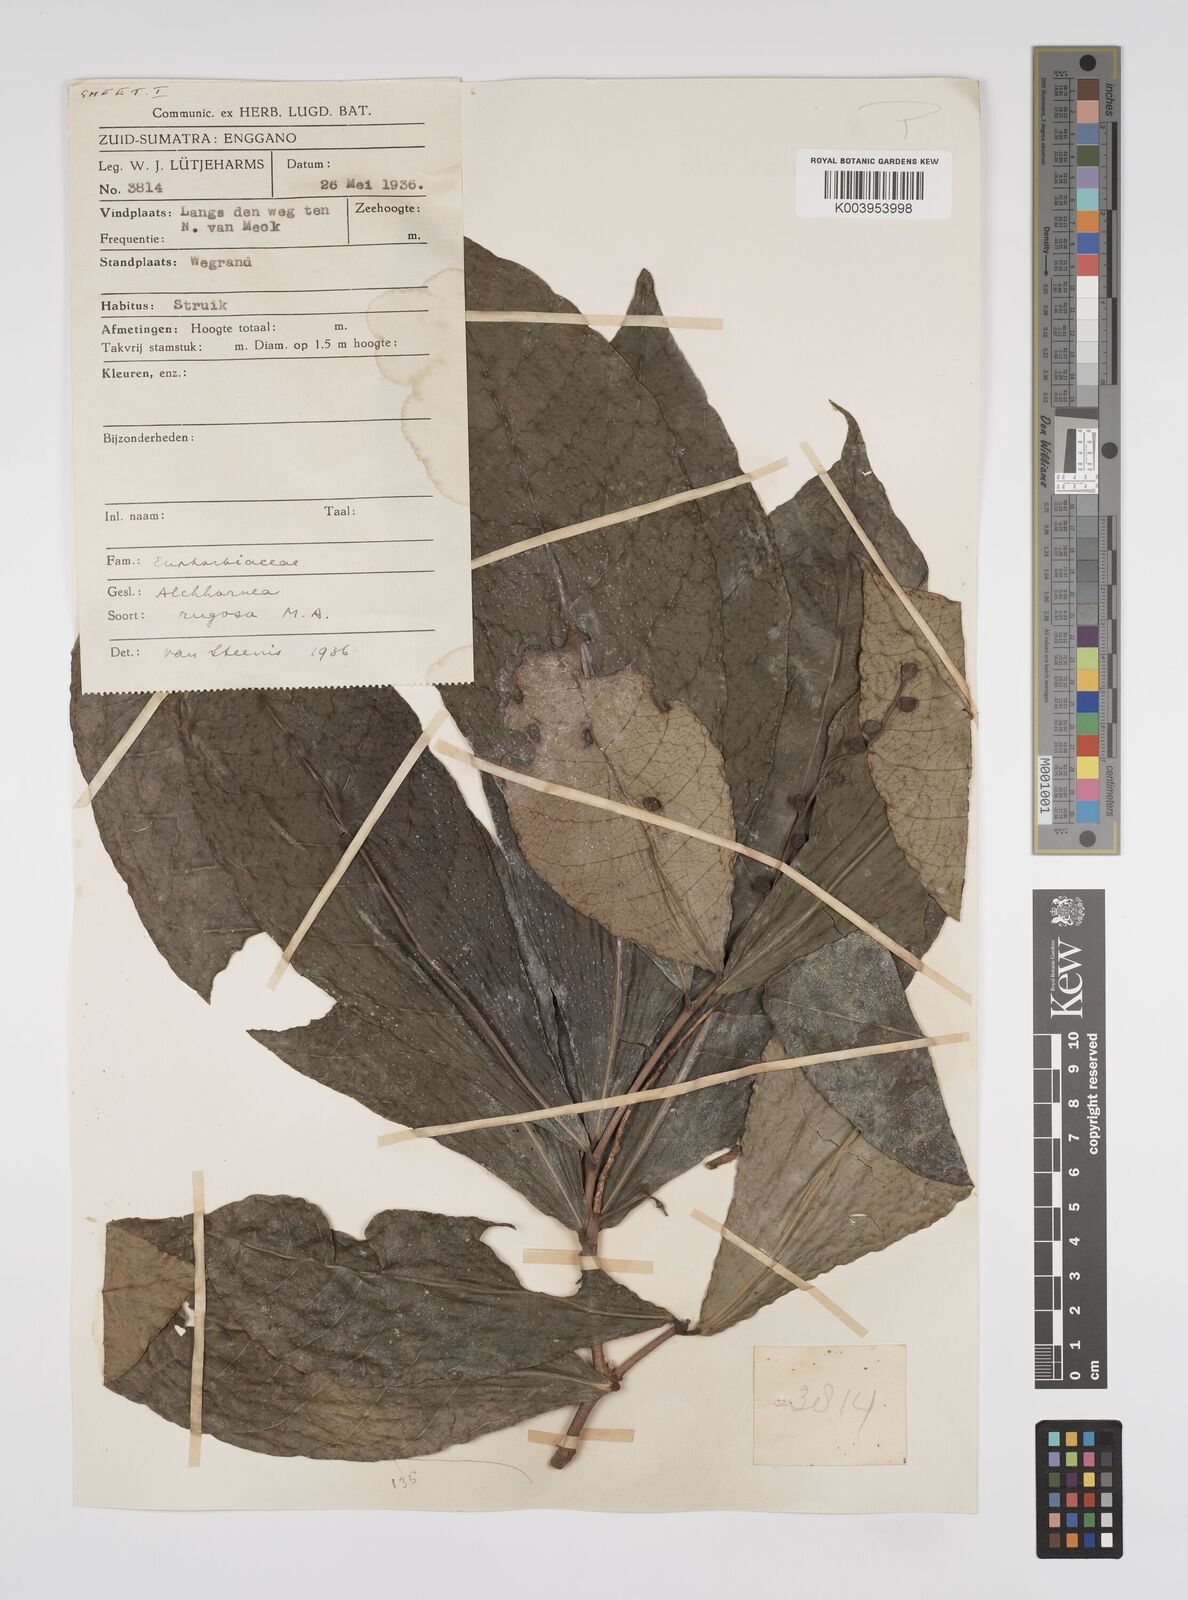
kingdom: Plantae
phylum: Tracheophyta
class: Magnoliopsida
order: Malpighiales
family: Euphorbiaceae
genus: Alchornea
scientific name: Alchornea rugosa
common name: Alchorntree
